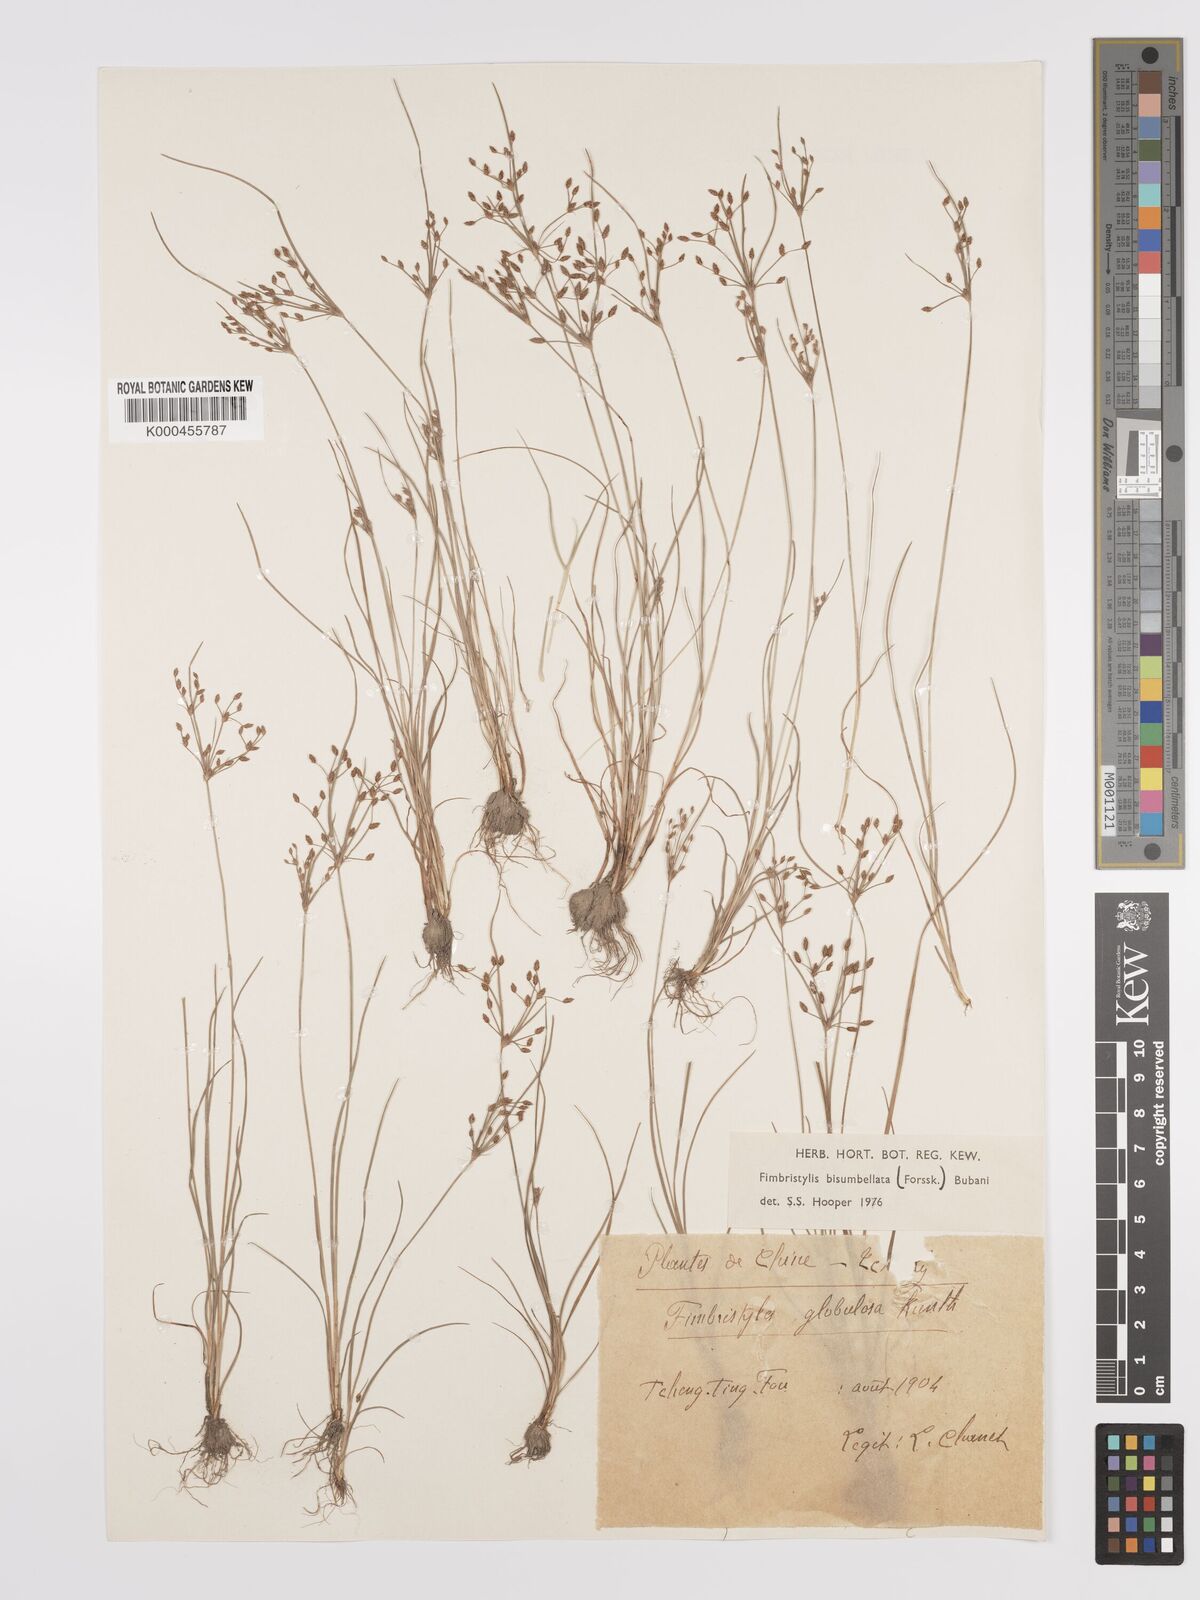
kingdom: Plantae
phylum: Tracheophyta
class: Liliopsida
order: Poales
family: Cyperaceae
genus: Fimbristylis
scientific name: Fimbristylis dichotoma
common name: Forked fimbry
